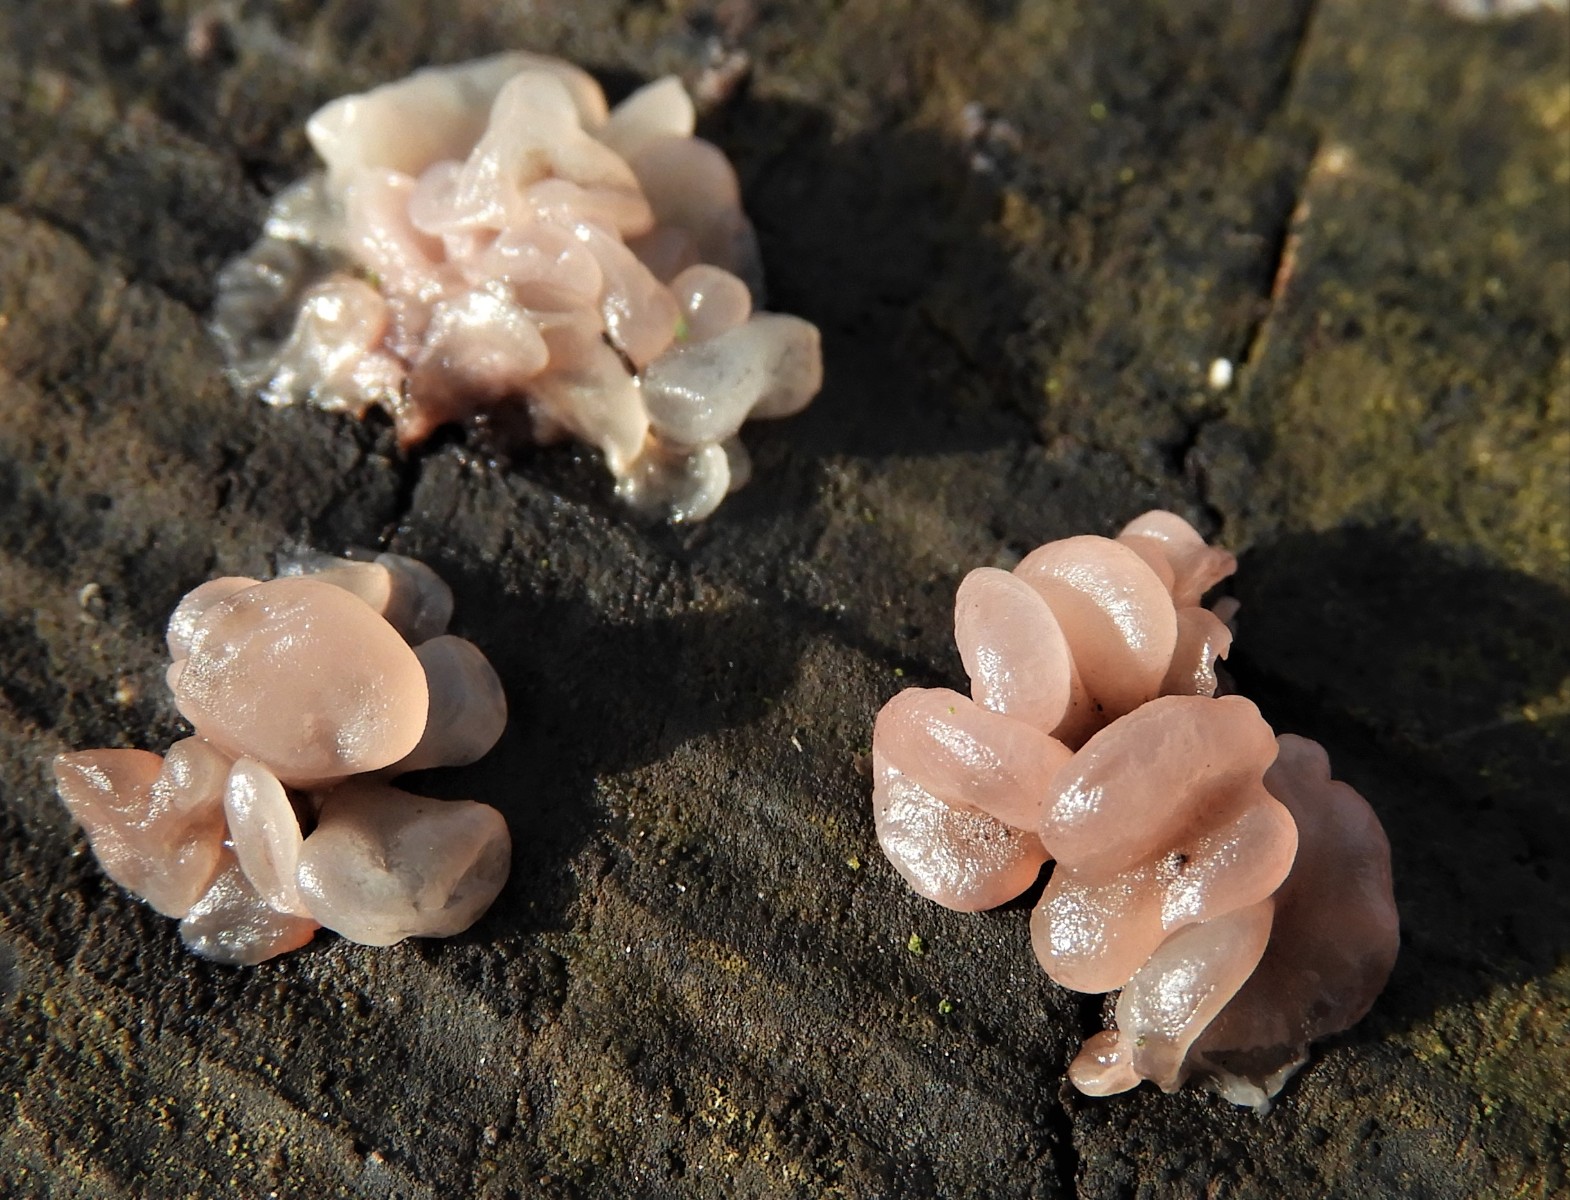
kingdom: Fungi
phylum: Ascomycota
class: Leotiomycetes
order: Helotiales
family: Gelatinodiscaceae
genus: Ascocoryne
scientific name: Ascocoryne sarcoides
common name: rødlilla sejskive
